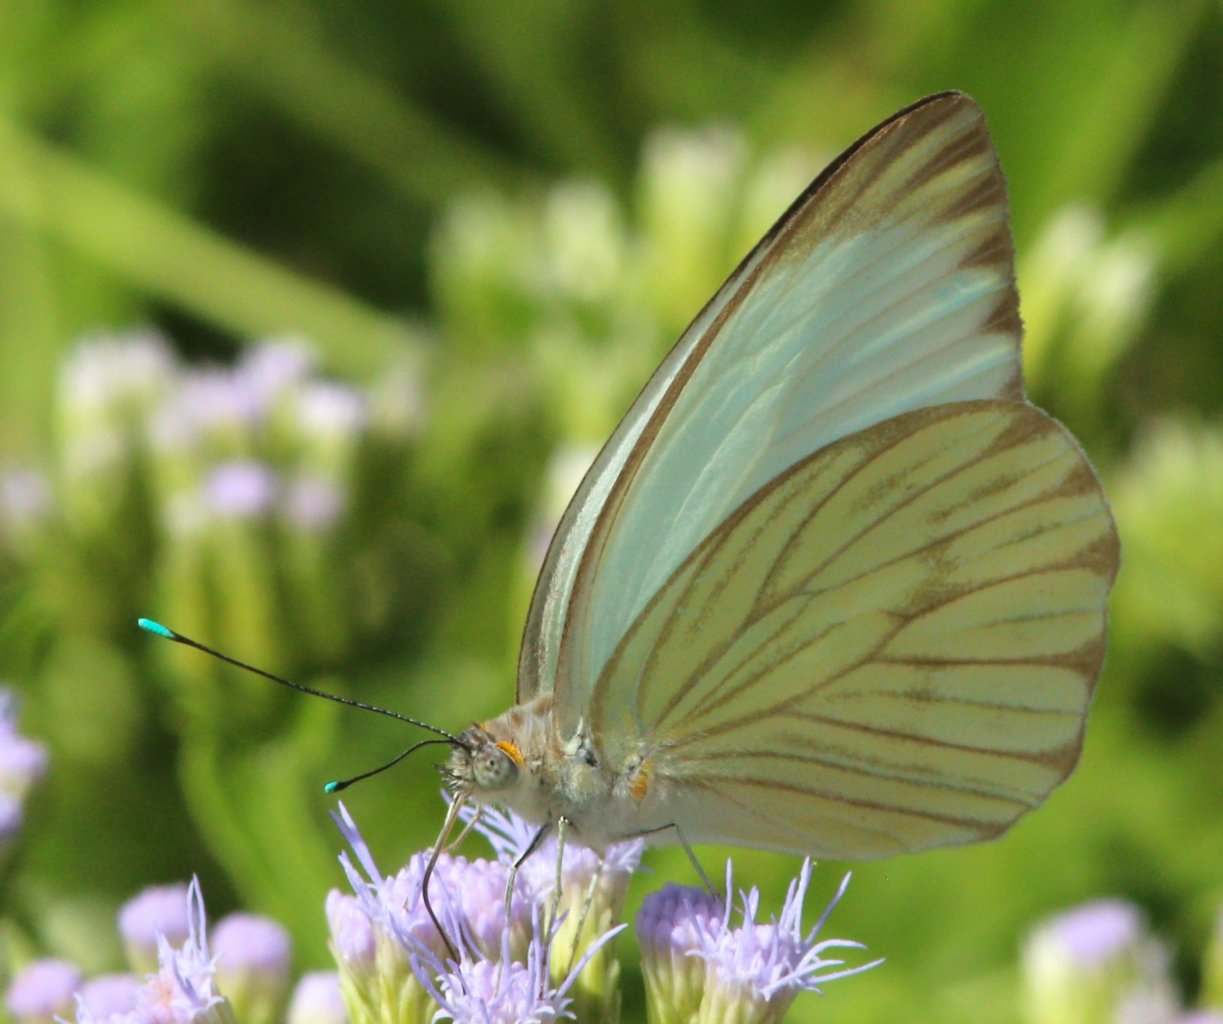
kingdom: Animalia
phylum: Arthropoda
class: Insecta
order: Lepidoptera
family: Pieridae
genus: Ascia
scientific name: Ascia monuste
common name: Great Southern White
